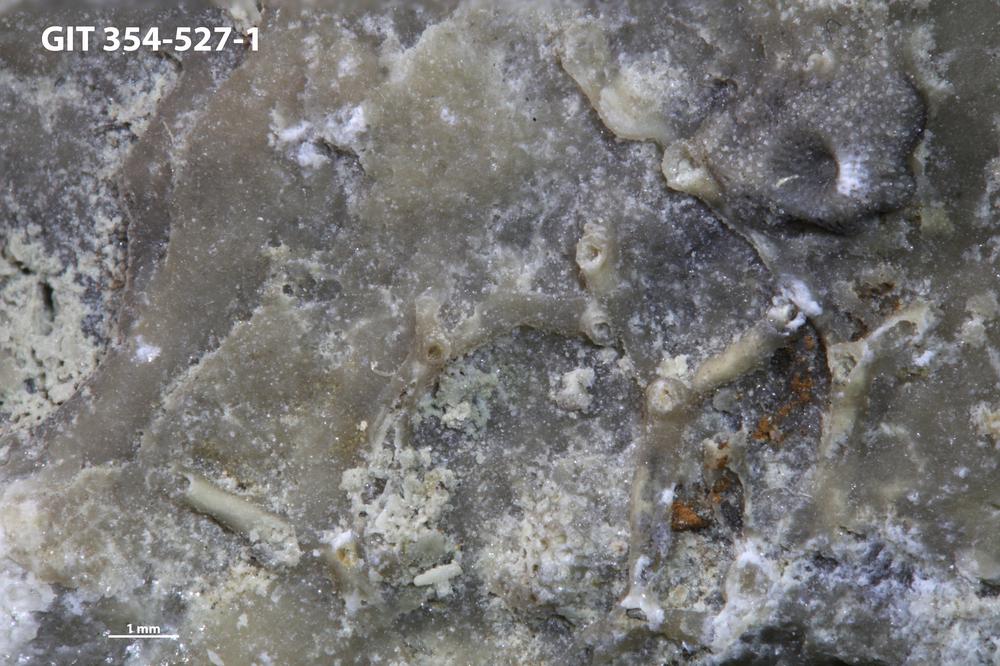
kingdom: Animalia
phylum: Cnidaria
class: Anthozoa
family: Auloporidae
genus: Aulopora
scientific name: Aulopora
